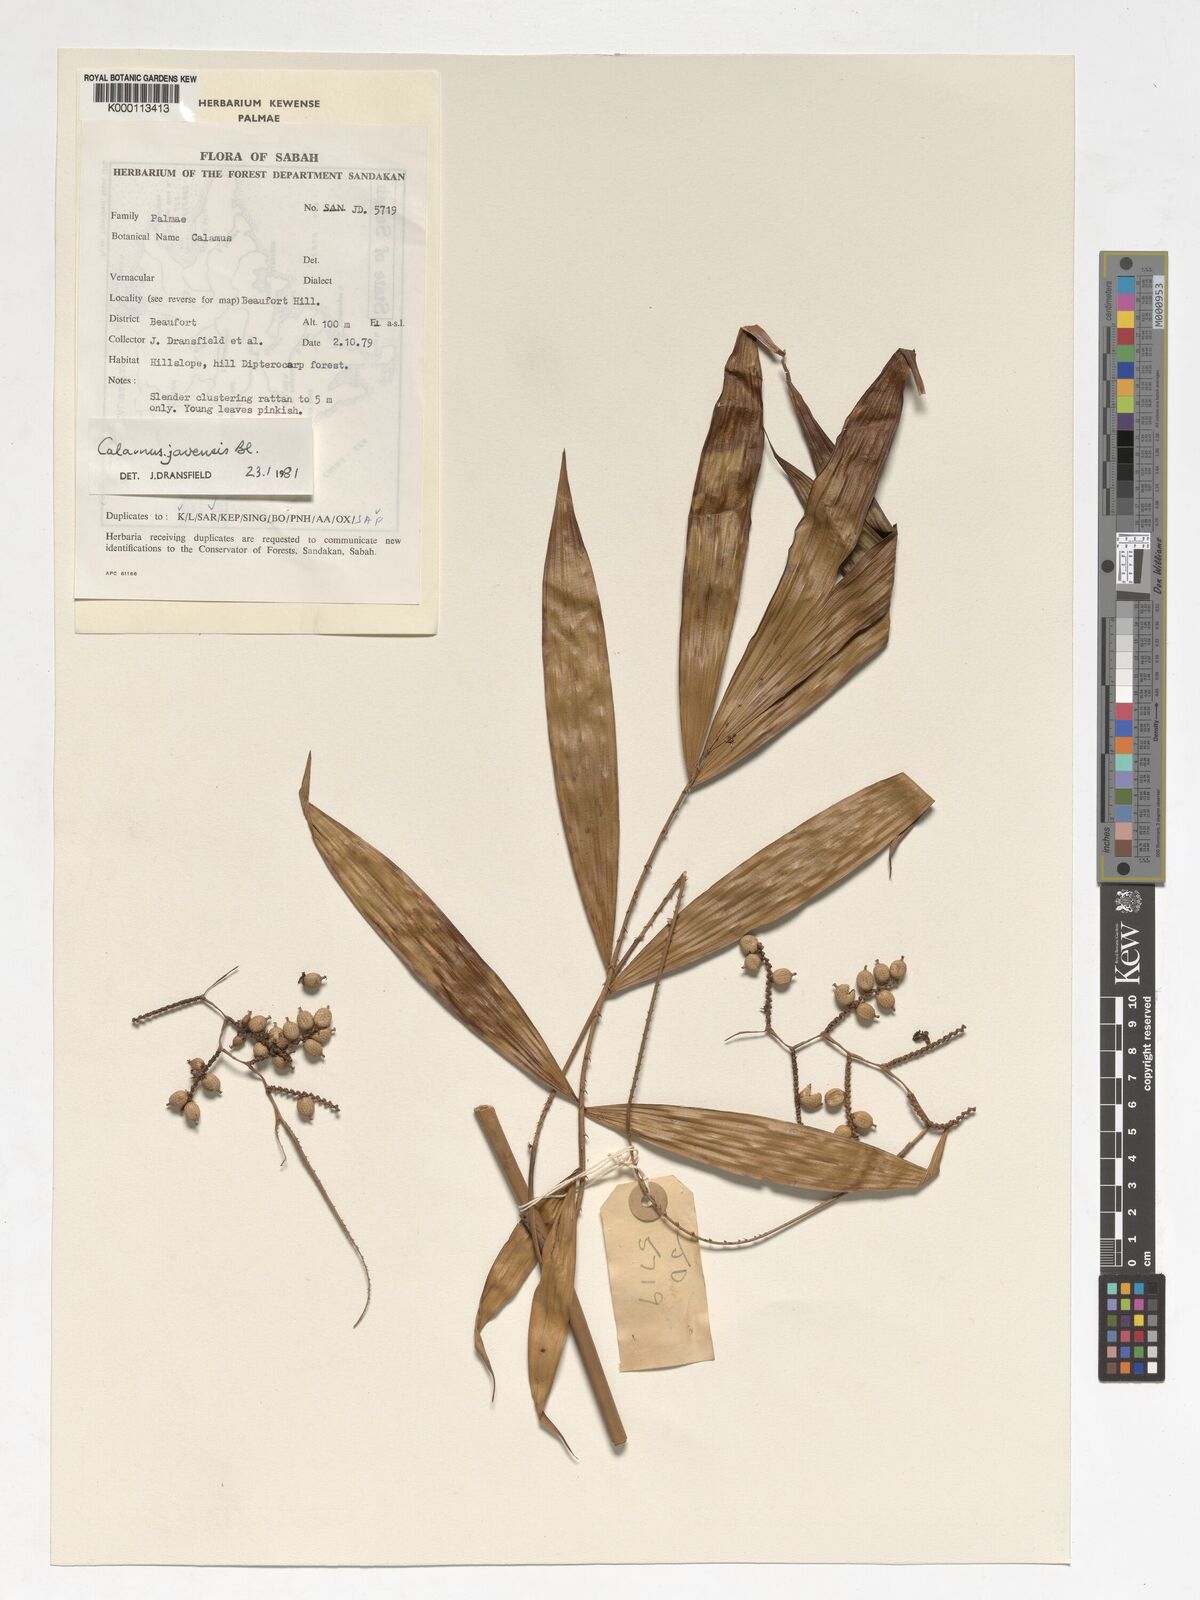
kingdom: Plantae
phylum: Tracheophyta
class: Liliopsida
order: Arecales
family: Arecaceae
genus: Calamus
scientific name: Calamus javensis
